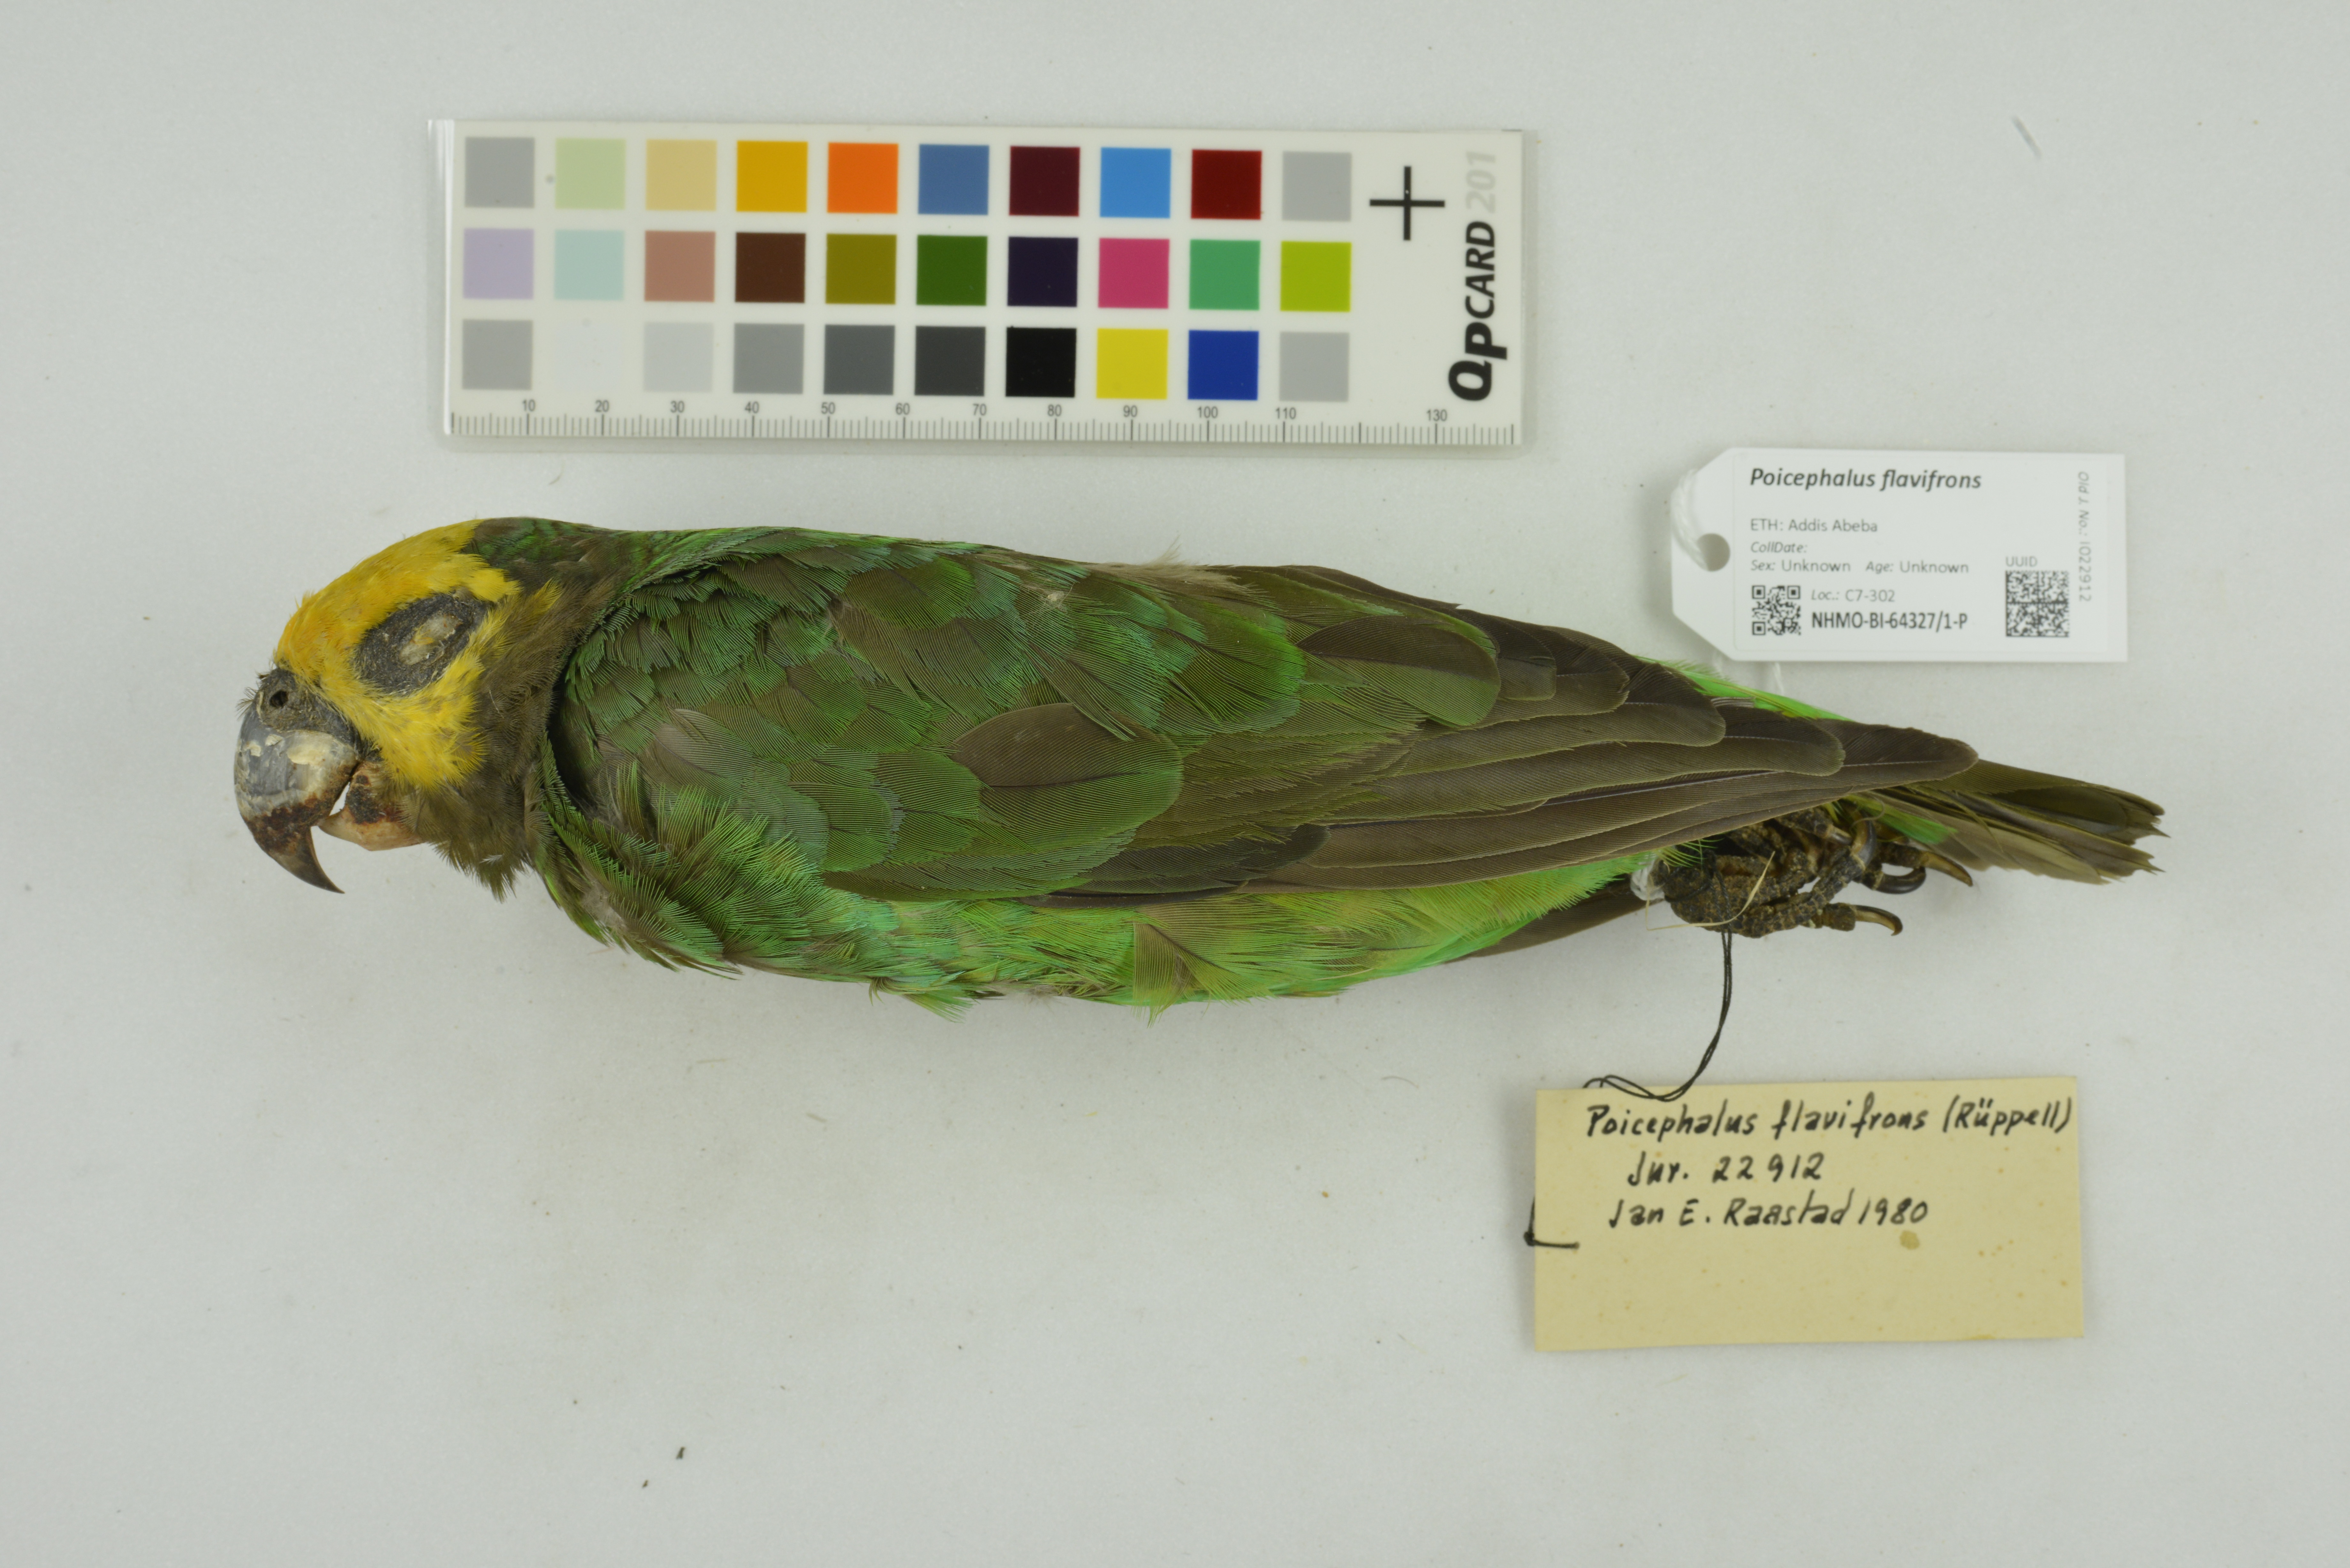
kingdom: Animalia
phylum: Chordata
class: Aves
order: Psittaciformes
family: Psittacidae
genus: Poicephalus
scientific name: Poicephalus flavifrons
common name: Yellow-fronted parrot
